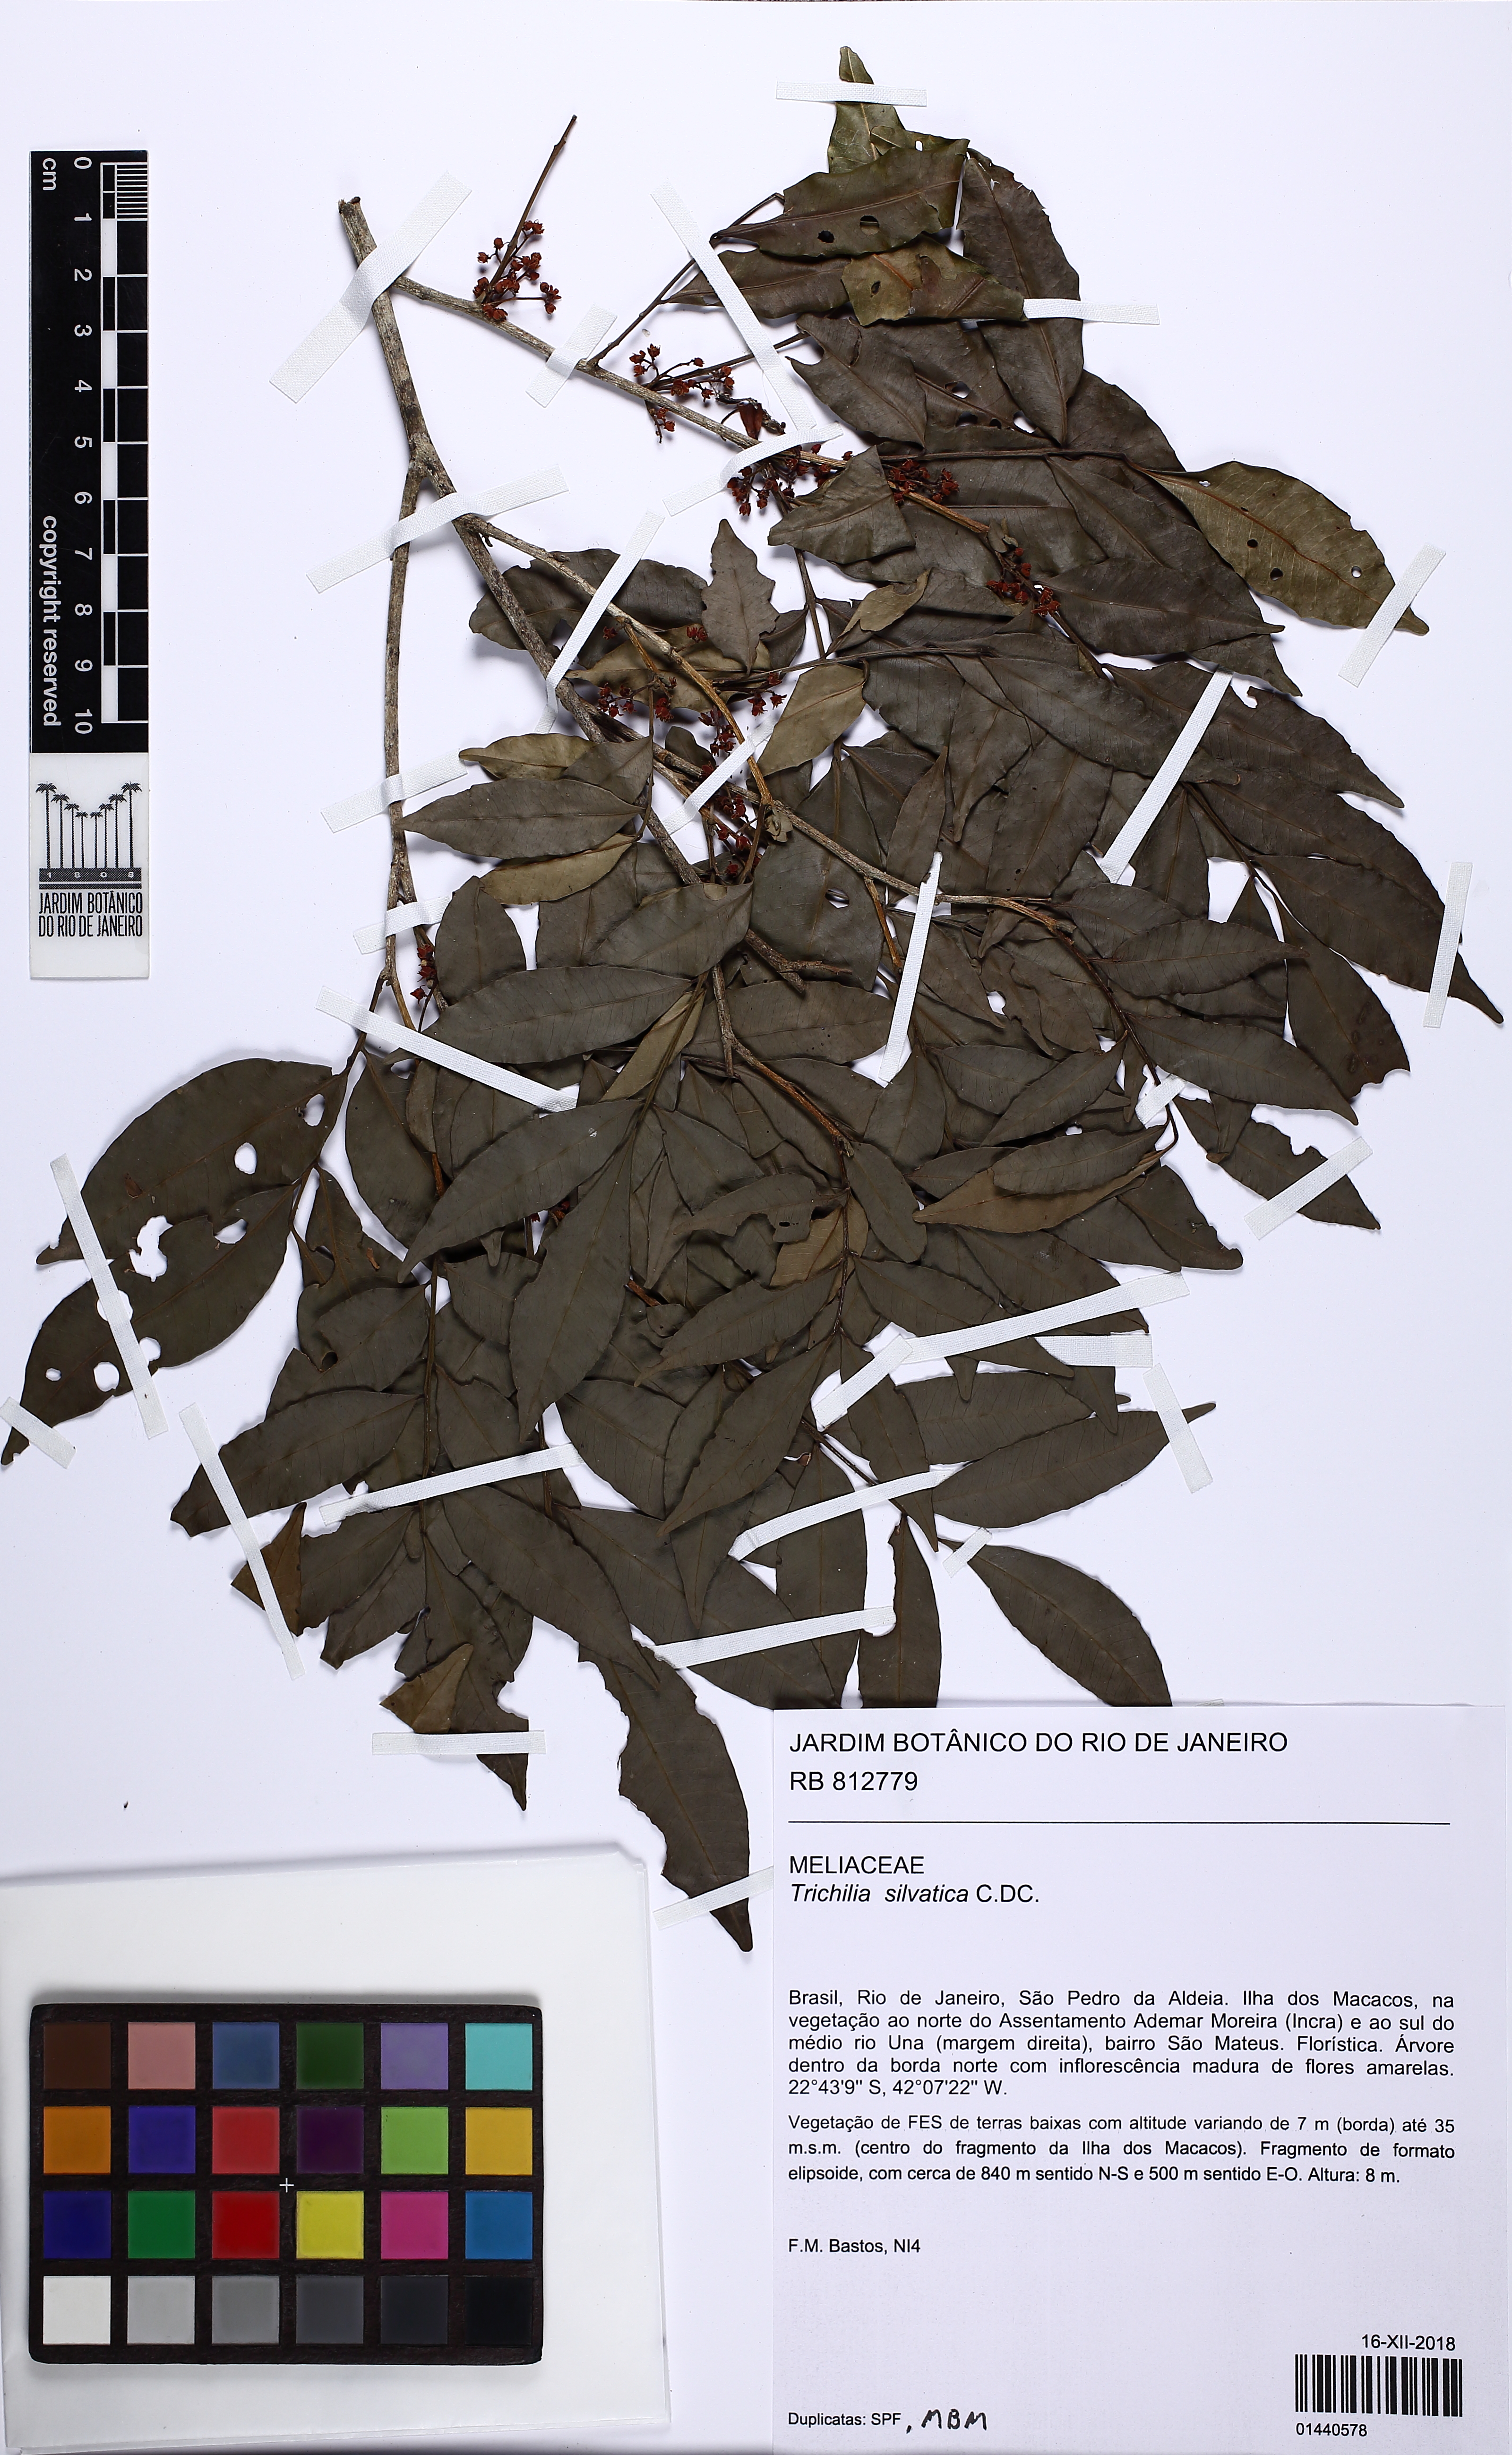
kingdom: Plantae
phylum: Tracheophyta
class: Magnoliopsida
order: Sapindales
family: Meliaceae
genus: Trichilia
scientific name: Trichilia silvatica
